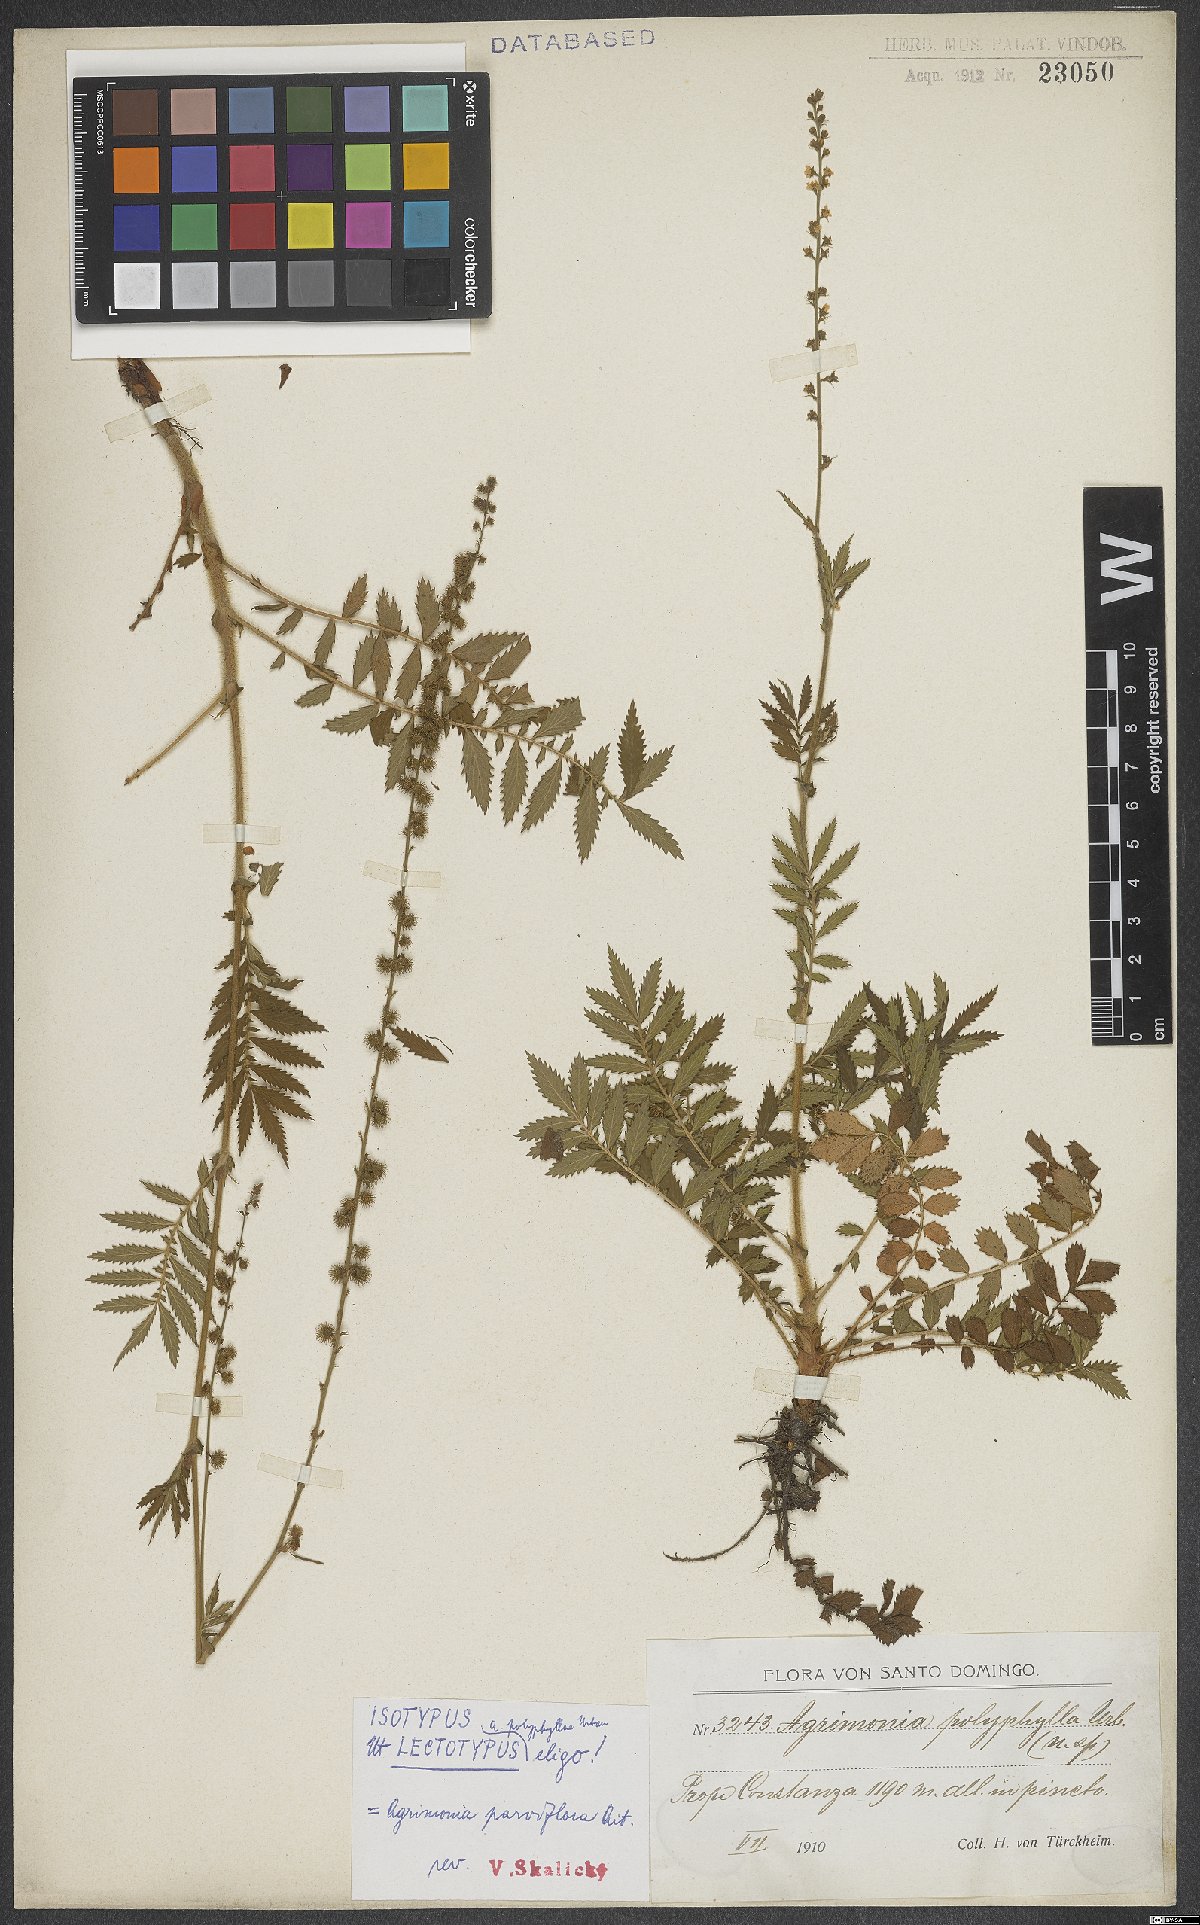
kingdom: Plantae
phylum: Tracheophyta
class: Magnoliopsida
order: Rosales
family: Rosaceae
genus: Agrimonia
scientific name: Agrimonia parviflora
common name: Harvest-lice
